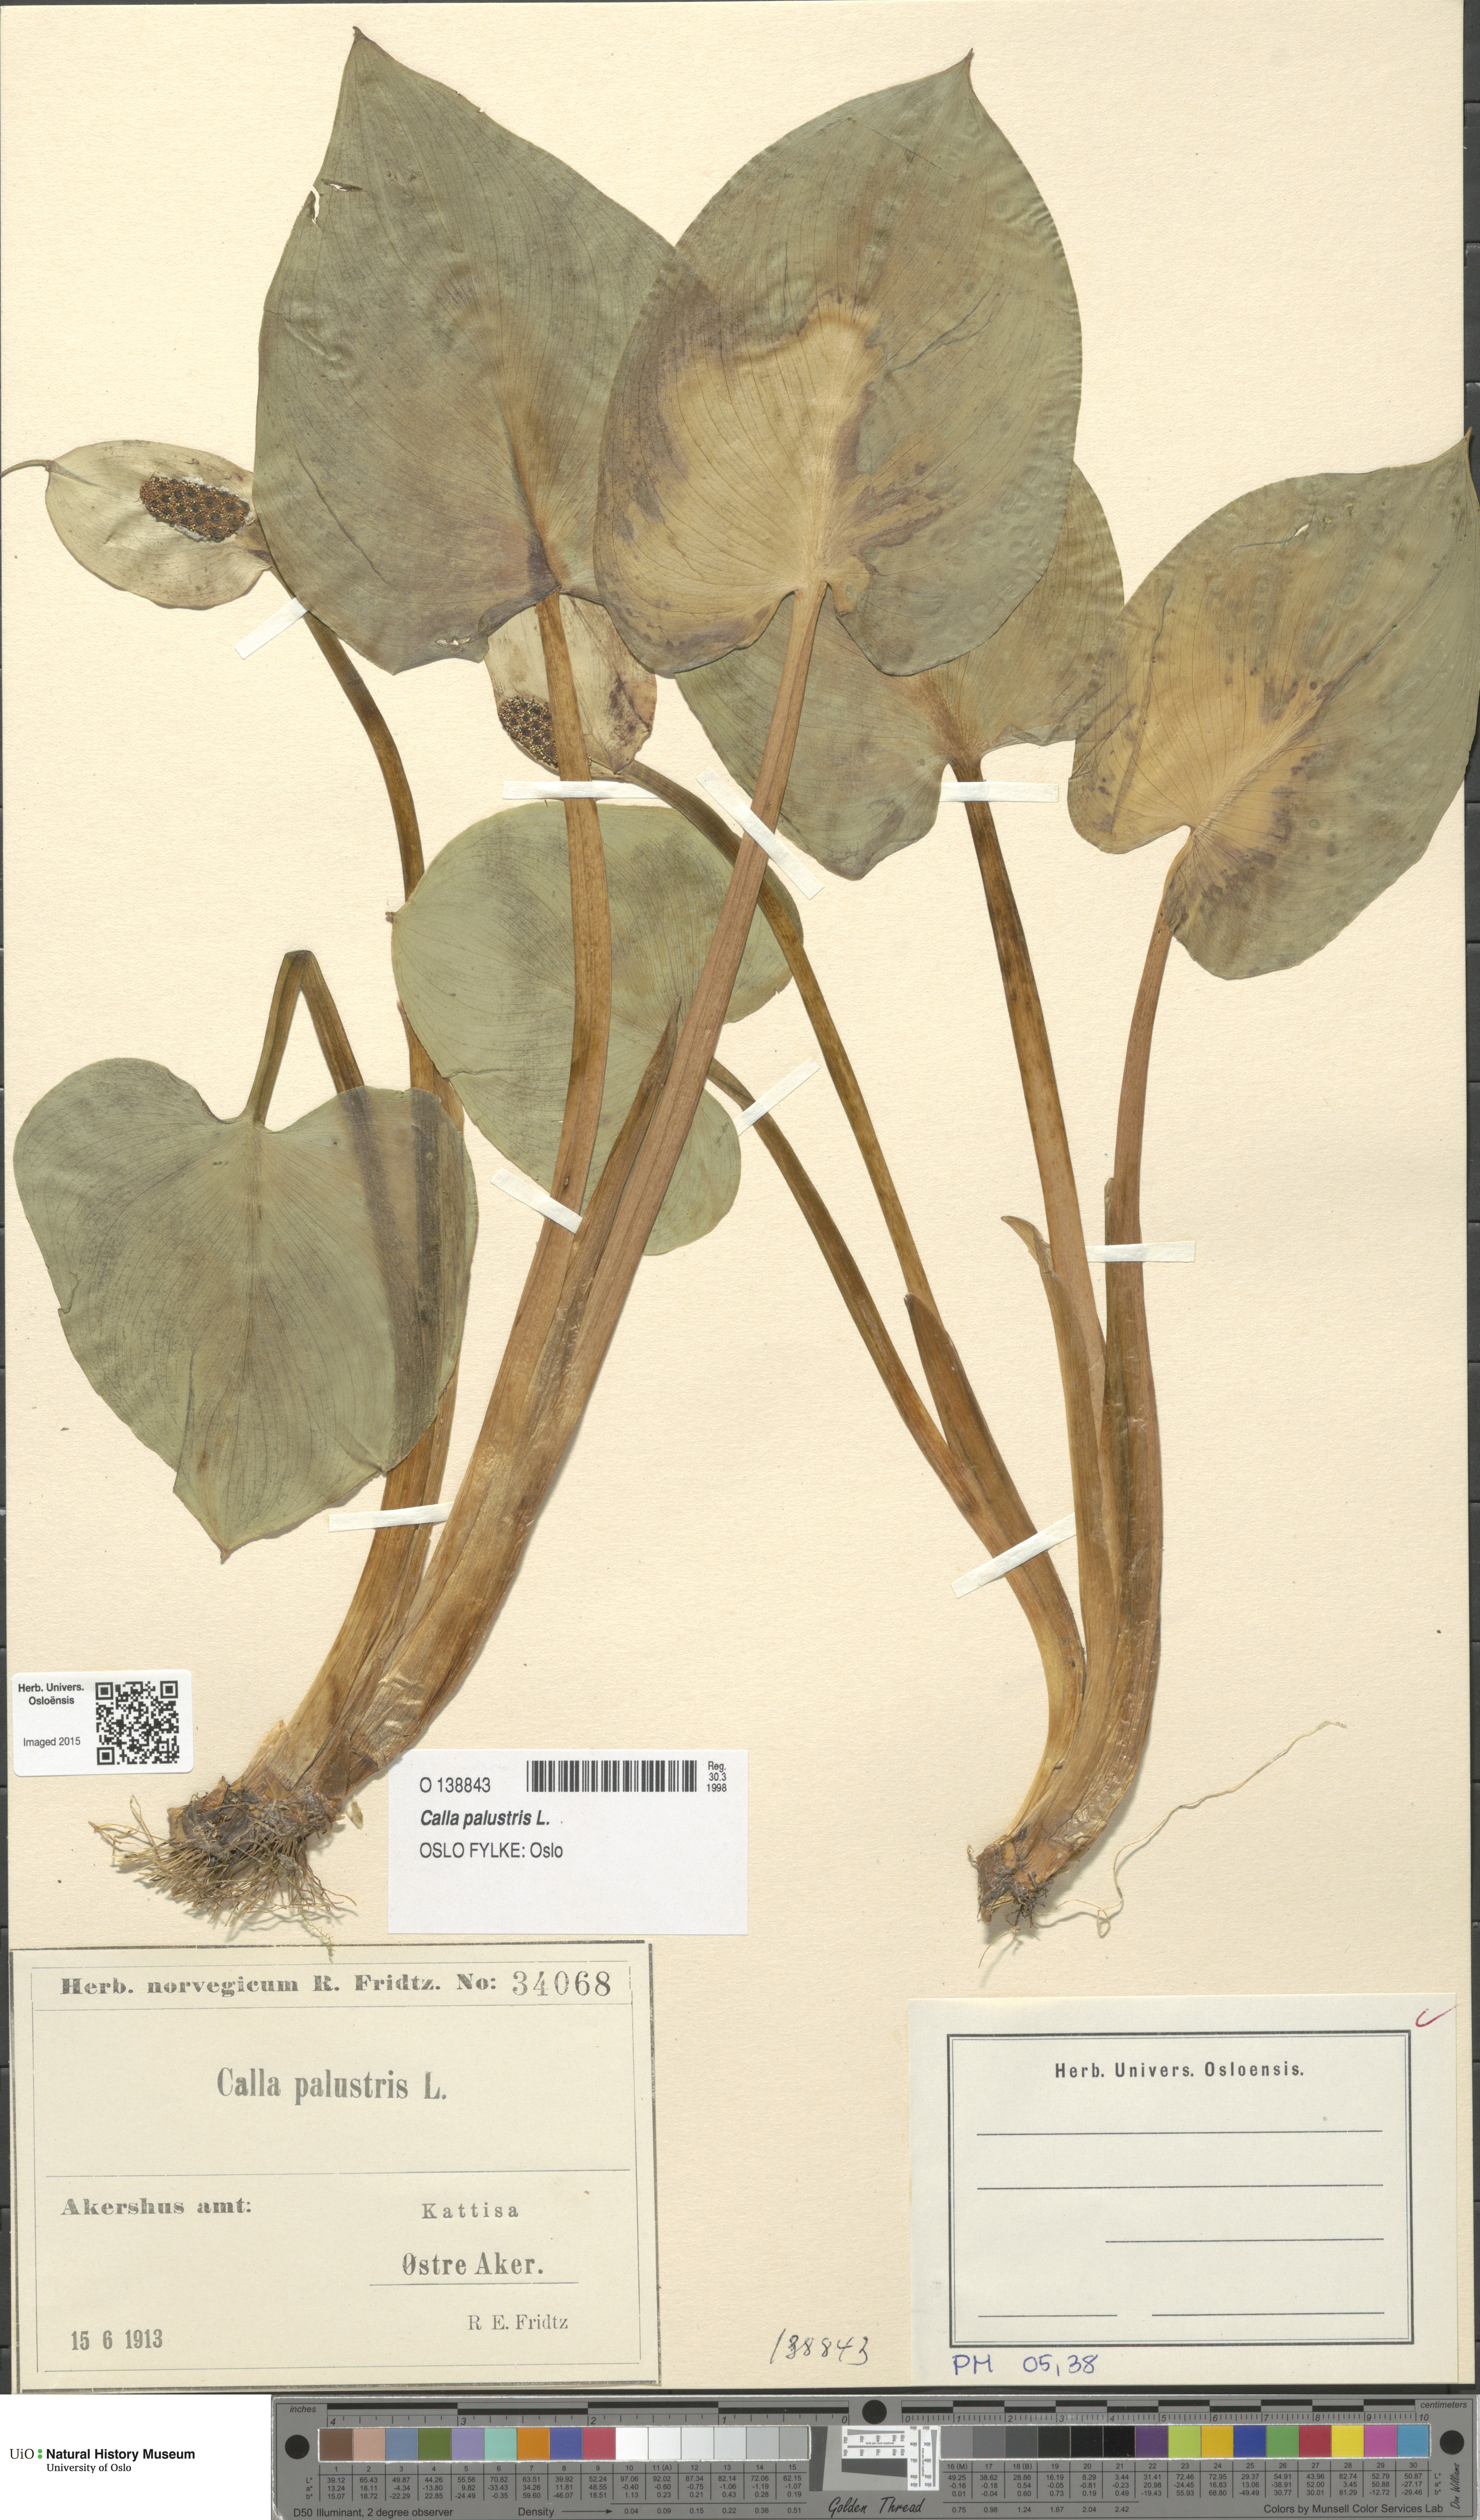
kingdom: Plantae
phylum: Tracheophyta
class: Liliopsida
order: Alismatales
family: Araceae
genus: Calla
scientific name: Calla palustris
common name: Bog arum
